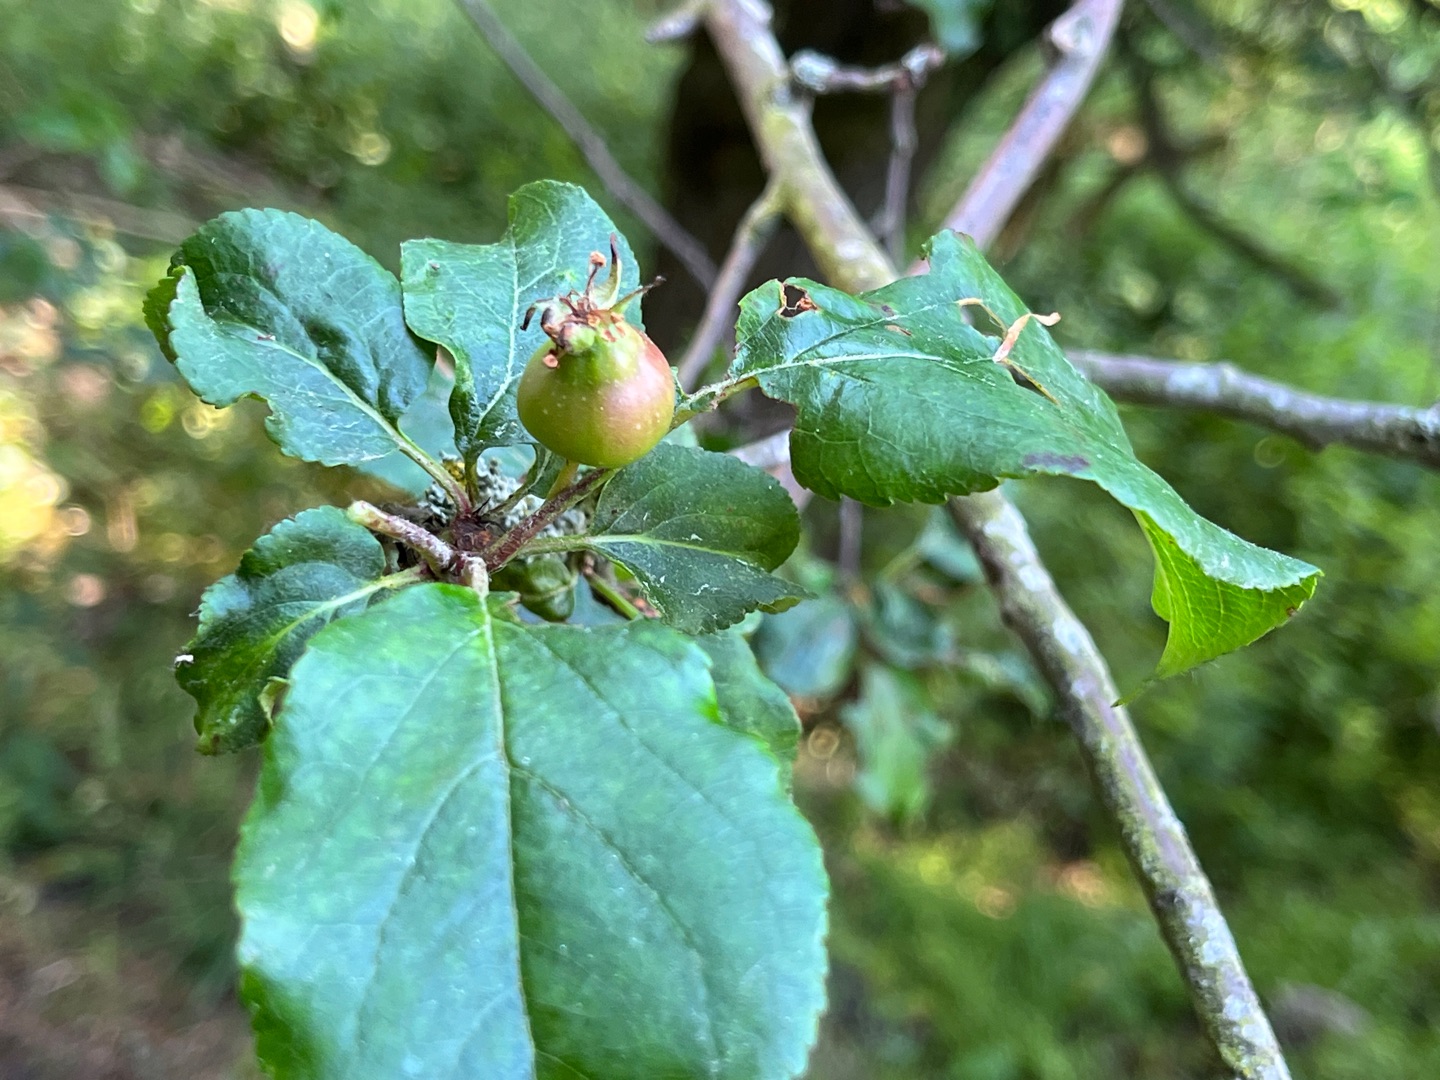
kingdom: Plantae
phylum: Tracheophyta
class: Magnoliopsida
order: Rosales
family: Rosaceae
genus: Malus
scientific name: Malus sylvestris
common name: Skov-æble
